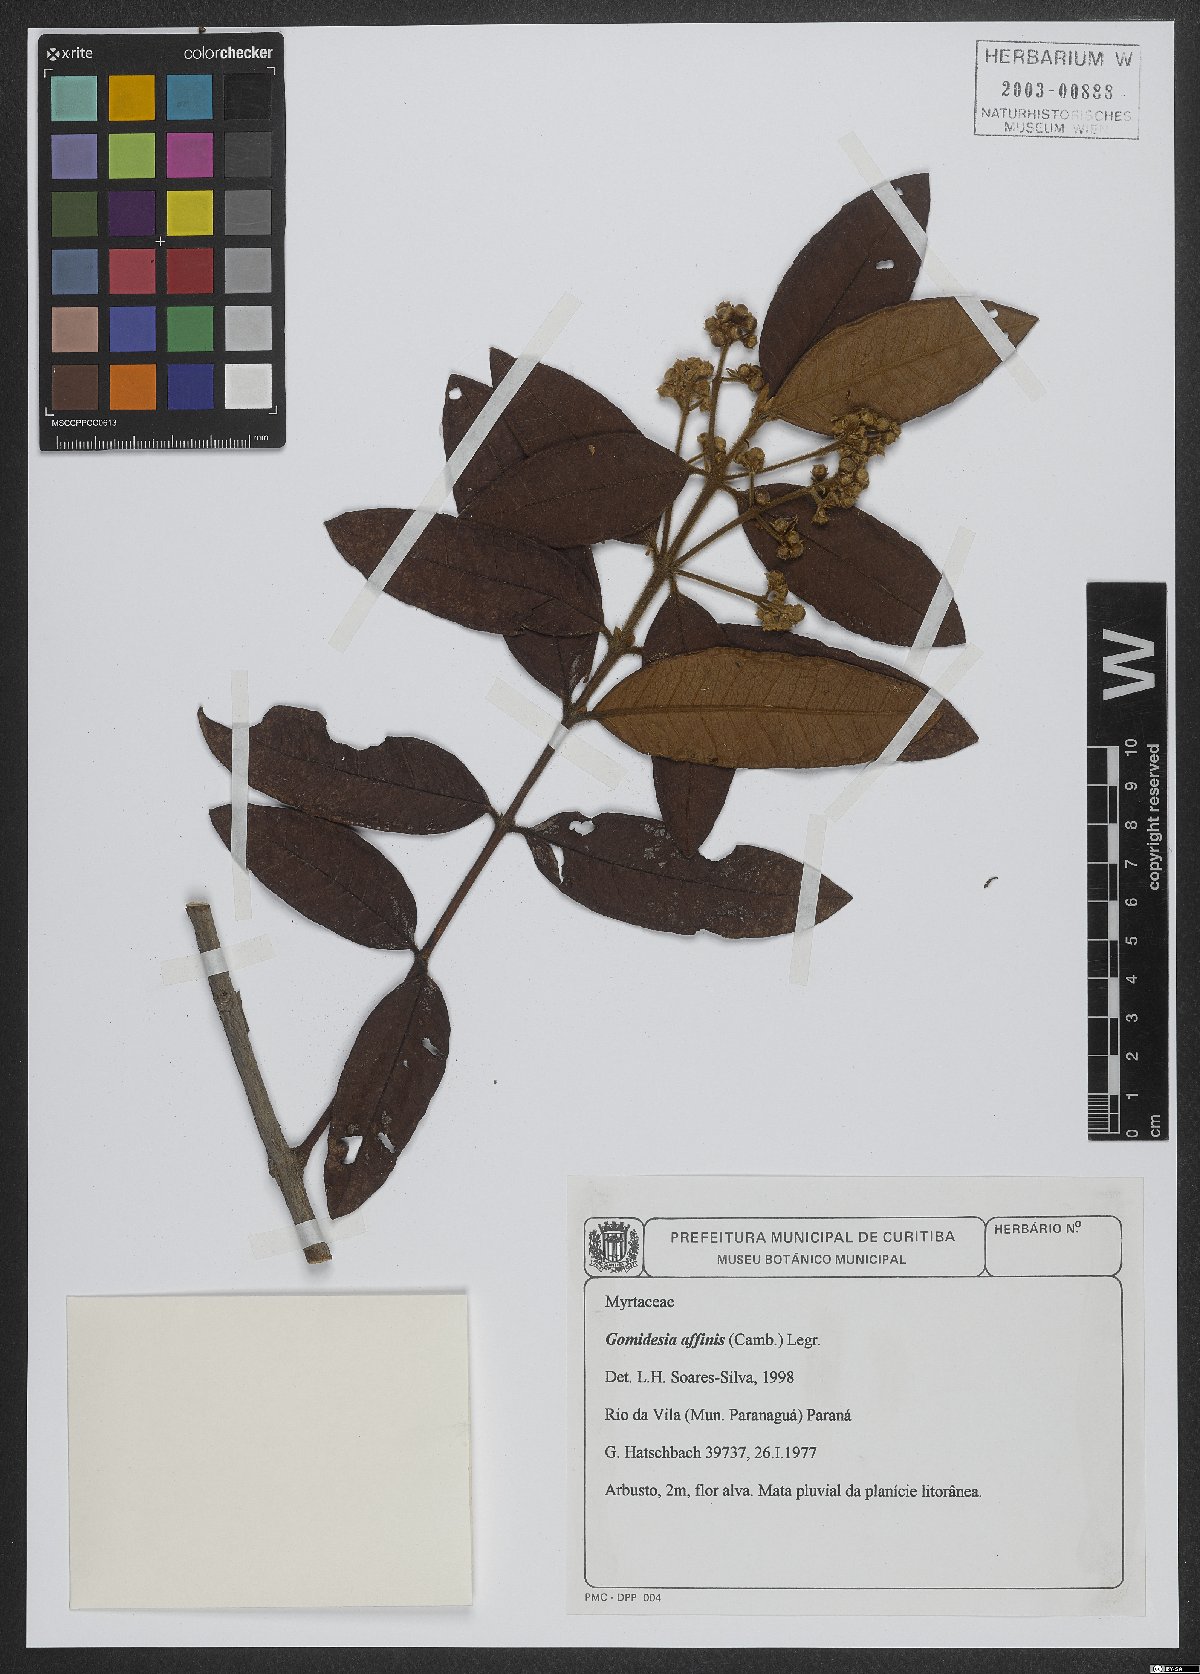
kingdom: Plantae
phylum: Tracheophyta
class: Magnoliopsida
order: Myrtales
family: Myrtaceae
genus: Myrcia
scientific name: Myrcia hebepetala
